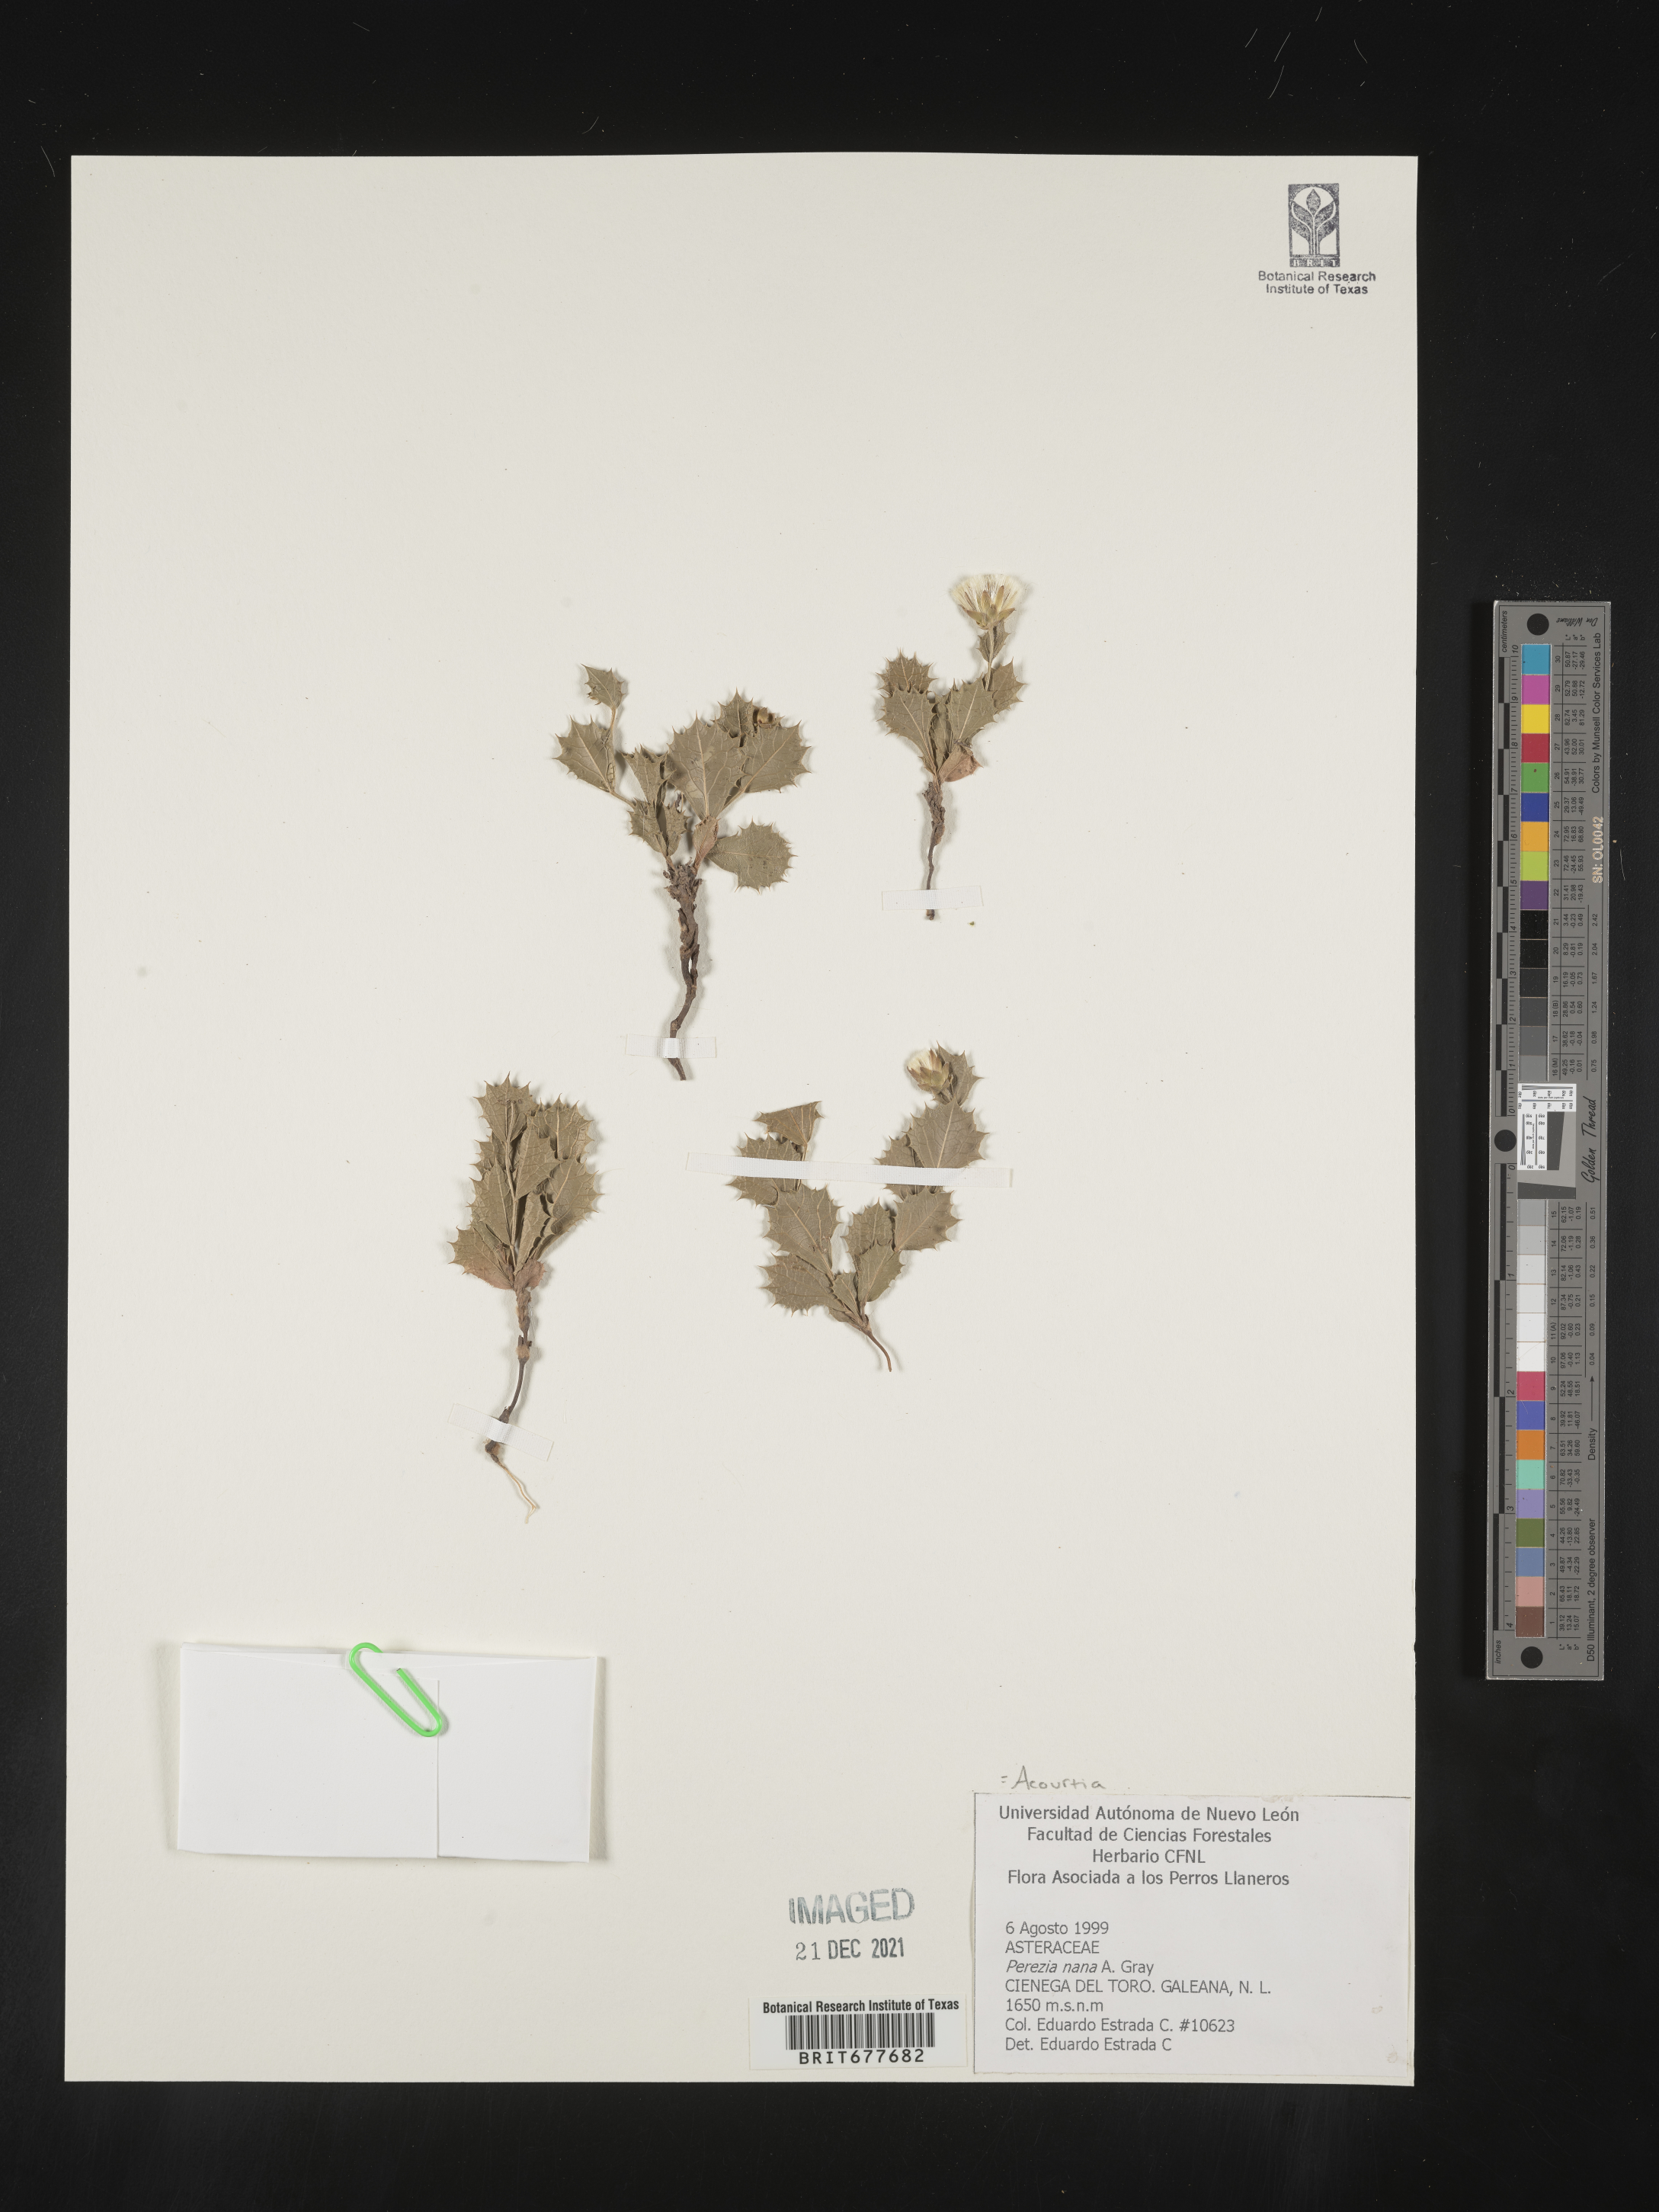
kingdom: Plantae
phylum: Tracheophyta
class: Magnoliopsida
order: Asterales
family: Asteraceae
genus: Perezia
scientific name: Perezia
